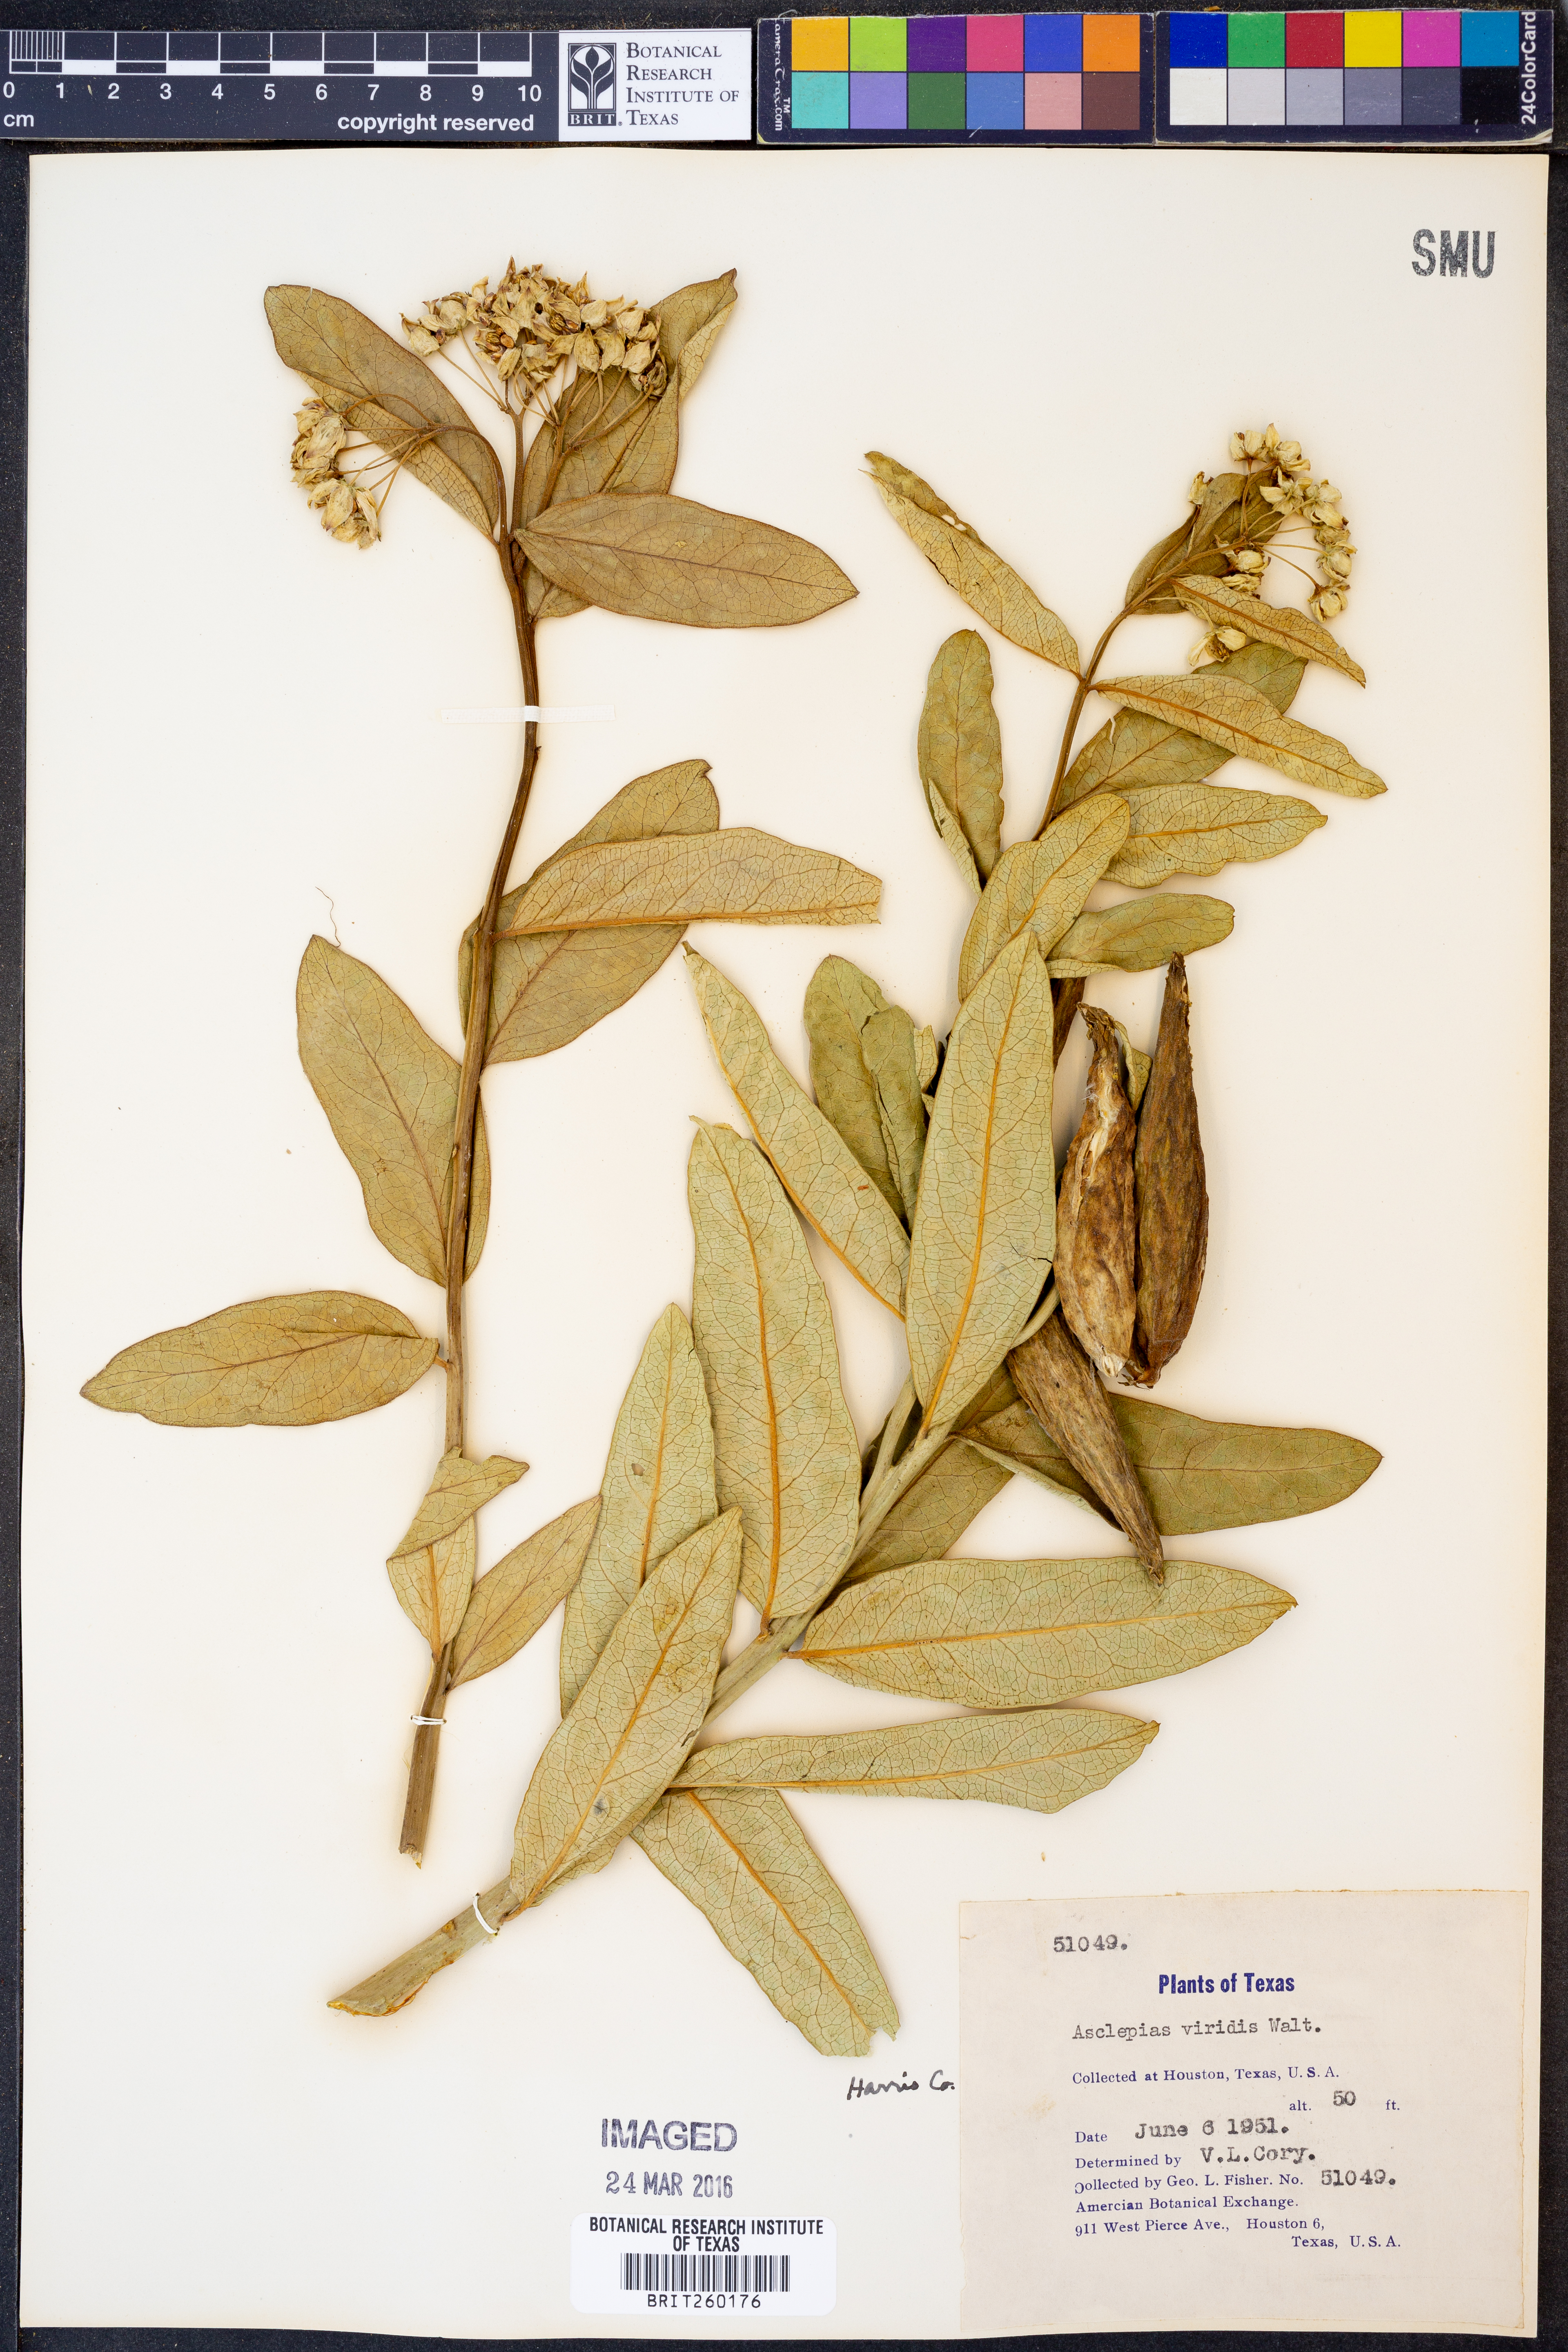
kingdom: Plantae
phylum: Tracheophyta
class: Magnoliopsida
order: Gentianales
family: Apocynaceae
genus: Asclepias
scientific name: Asclepias viridis
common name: Antelope-horns
